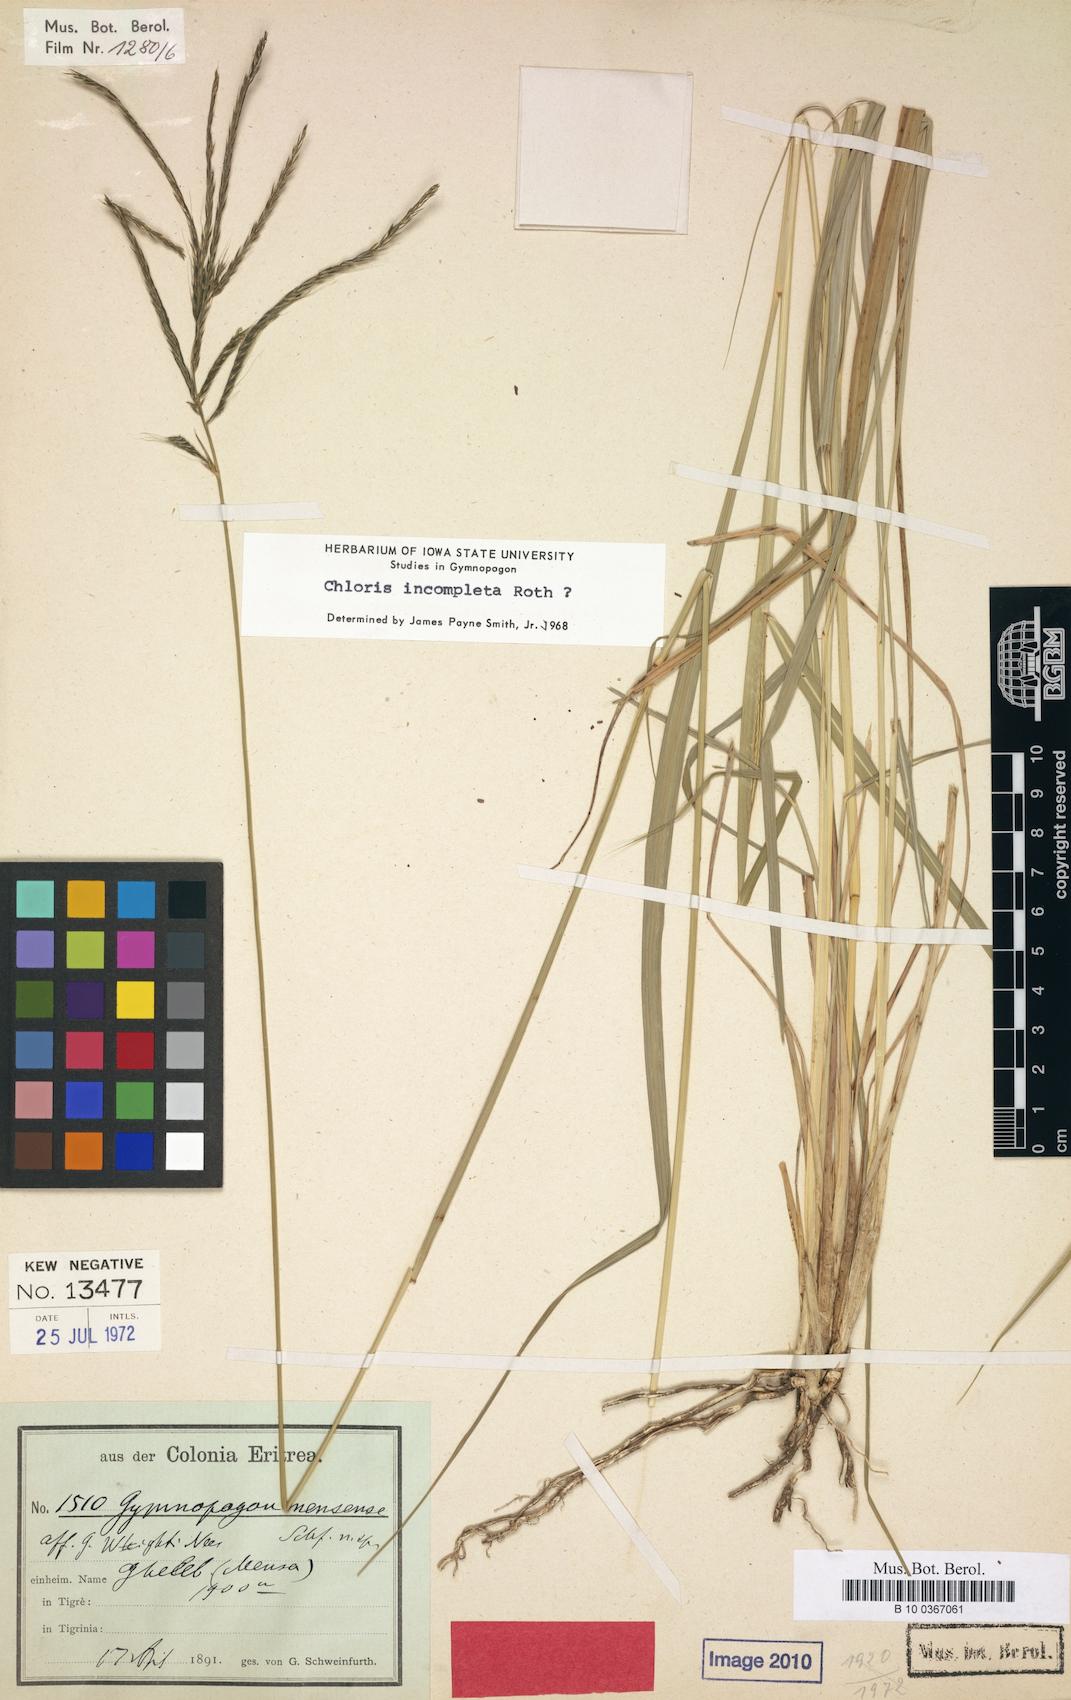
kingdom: Plantae
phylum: Tracheophyta
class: Liliopsida
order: Poales
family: Poaceae
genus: Gymnopogon
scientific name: Gymnopogon
